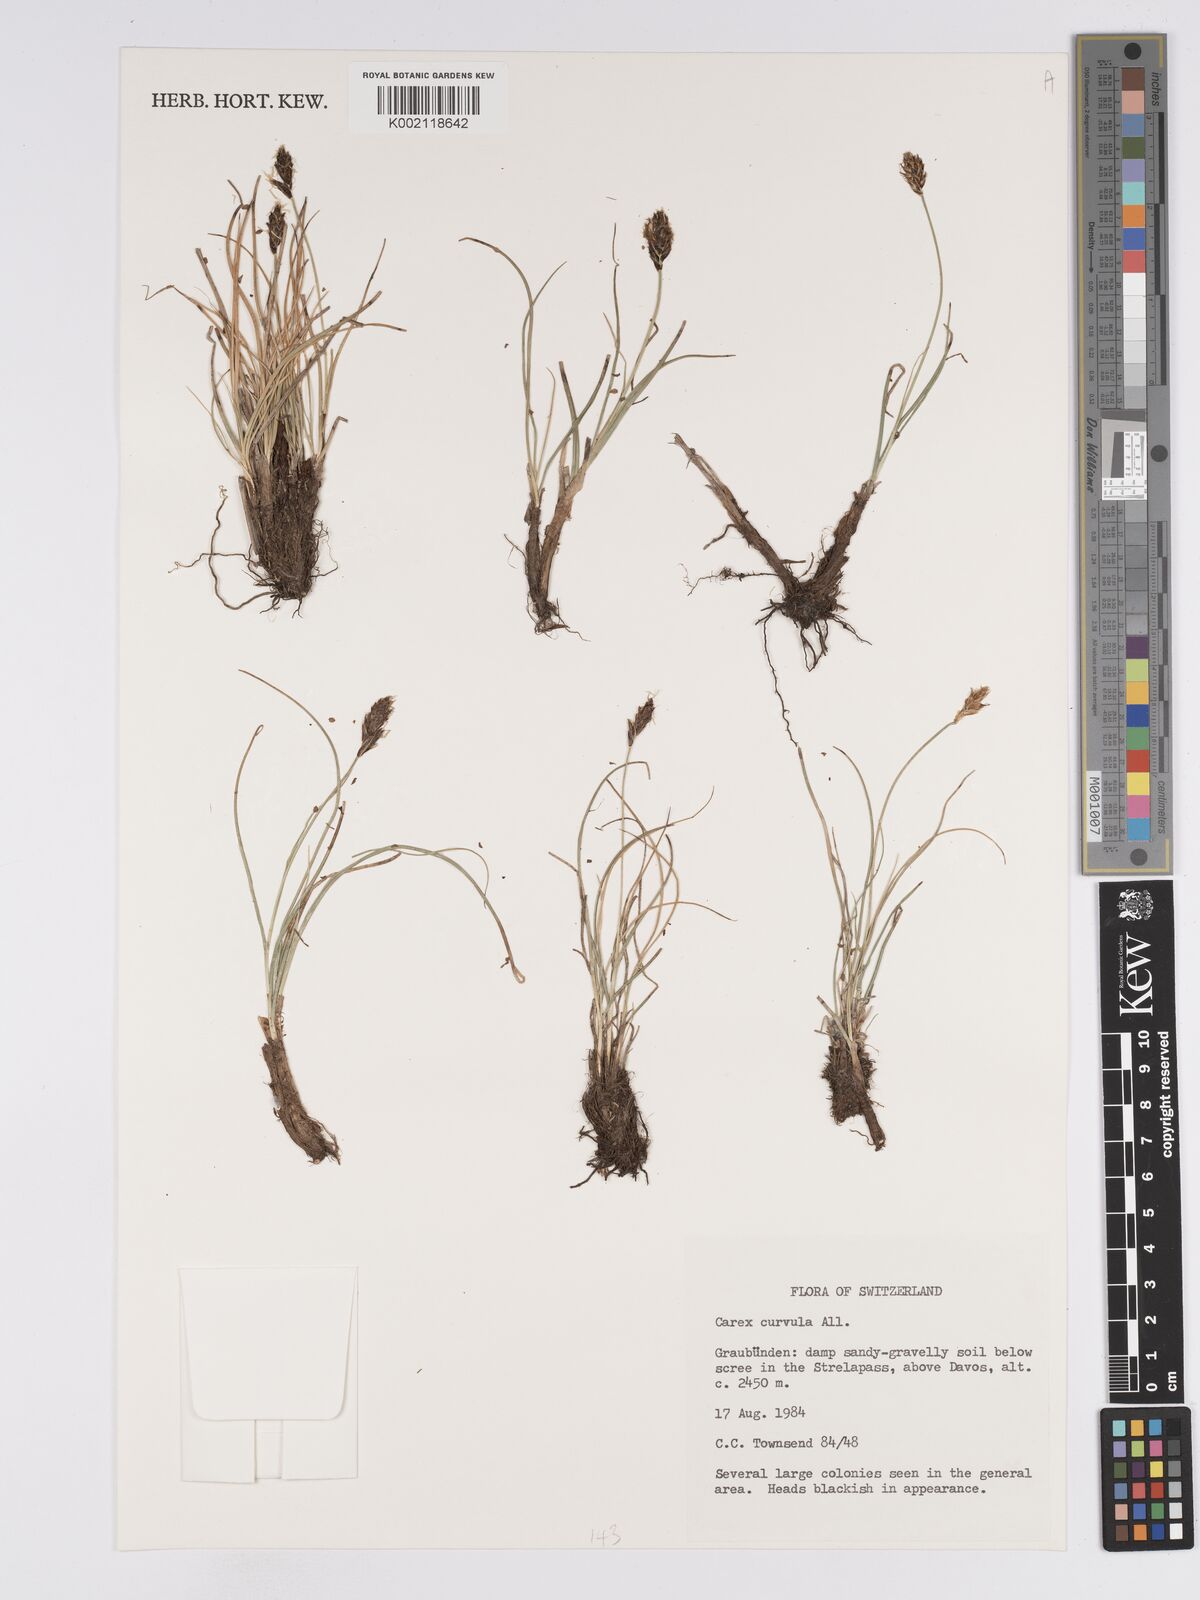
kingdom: Plantae
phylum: Tracheophyta
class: Liliopsida
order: Poales
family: Cyperaceae
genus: Carex
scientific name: Carex curvula
